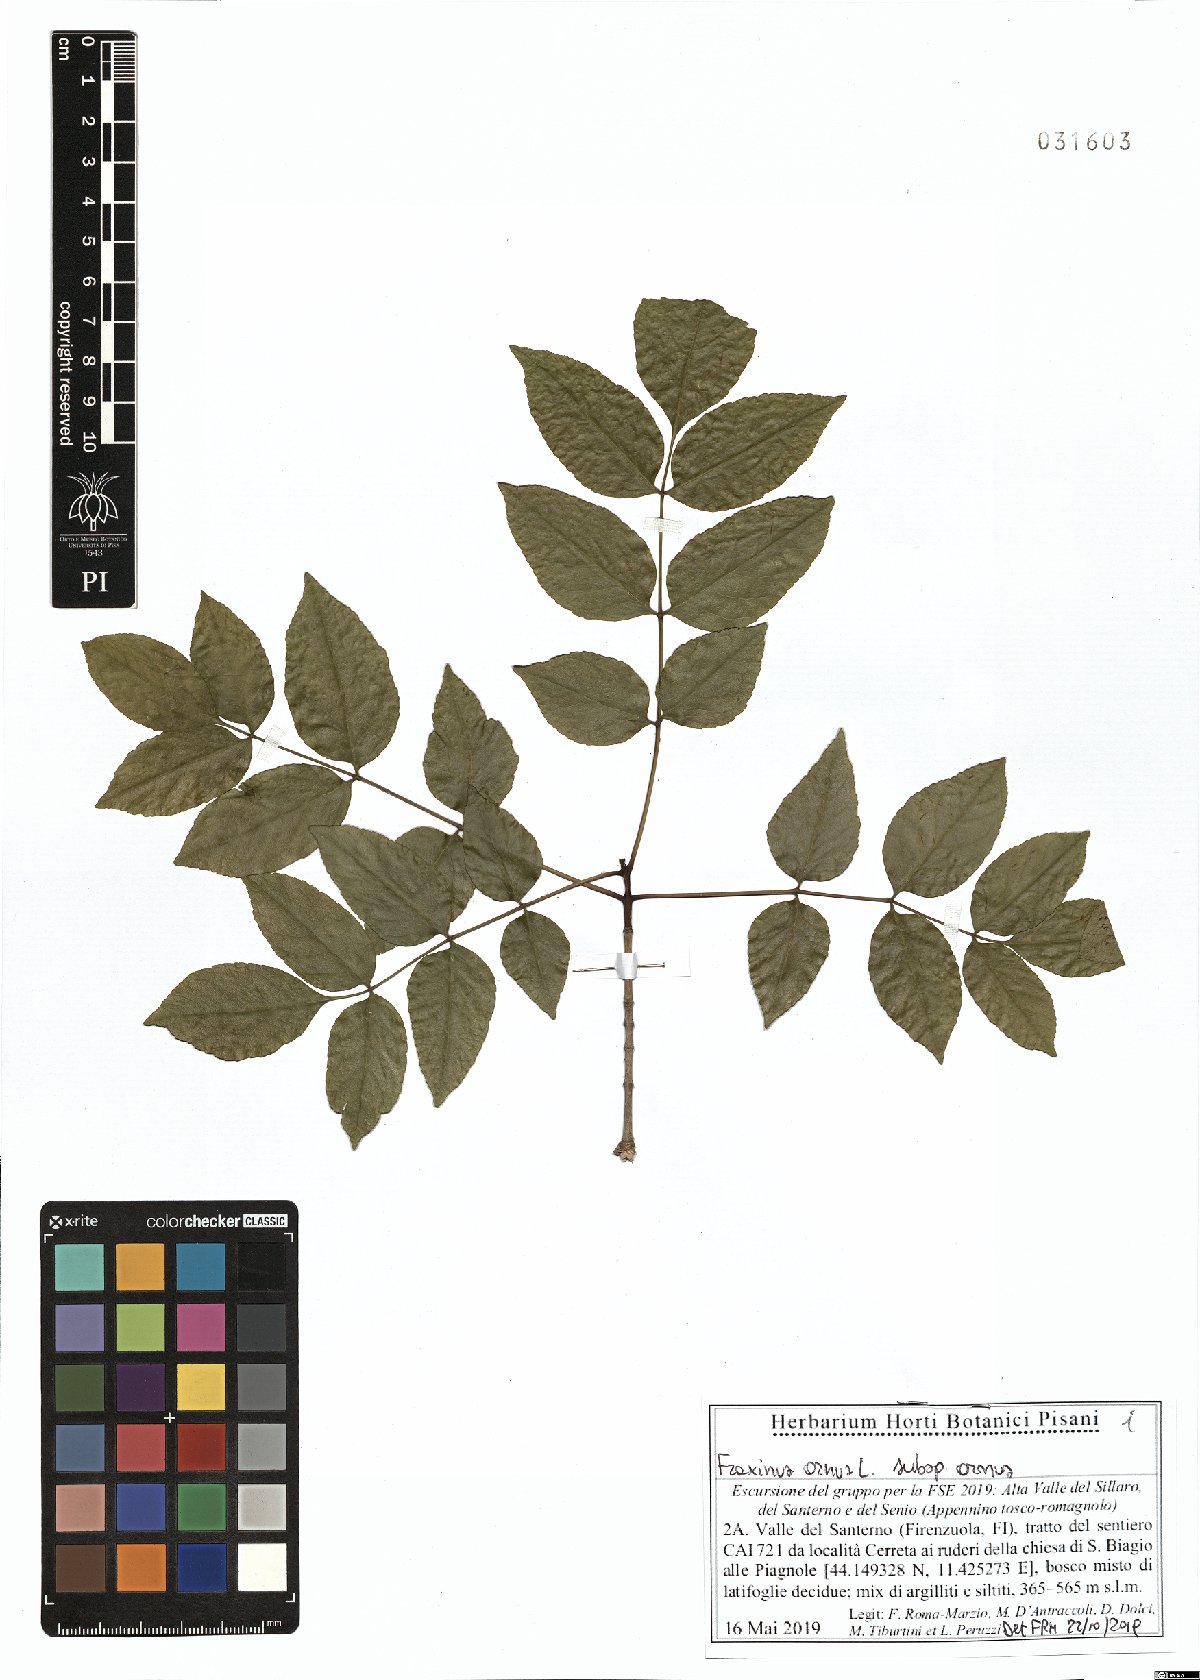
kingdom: Plantae
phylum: Tracheophyta
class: Magnoliopsida
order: Lamiales
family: Oleaceae
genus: Fraxinus
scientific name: Fraxinus ornus
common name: Manna ash
